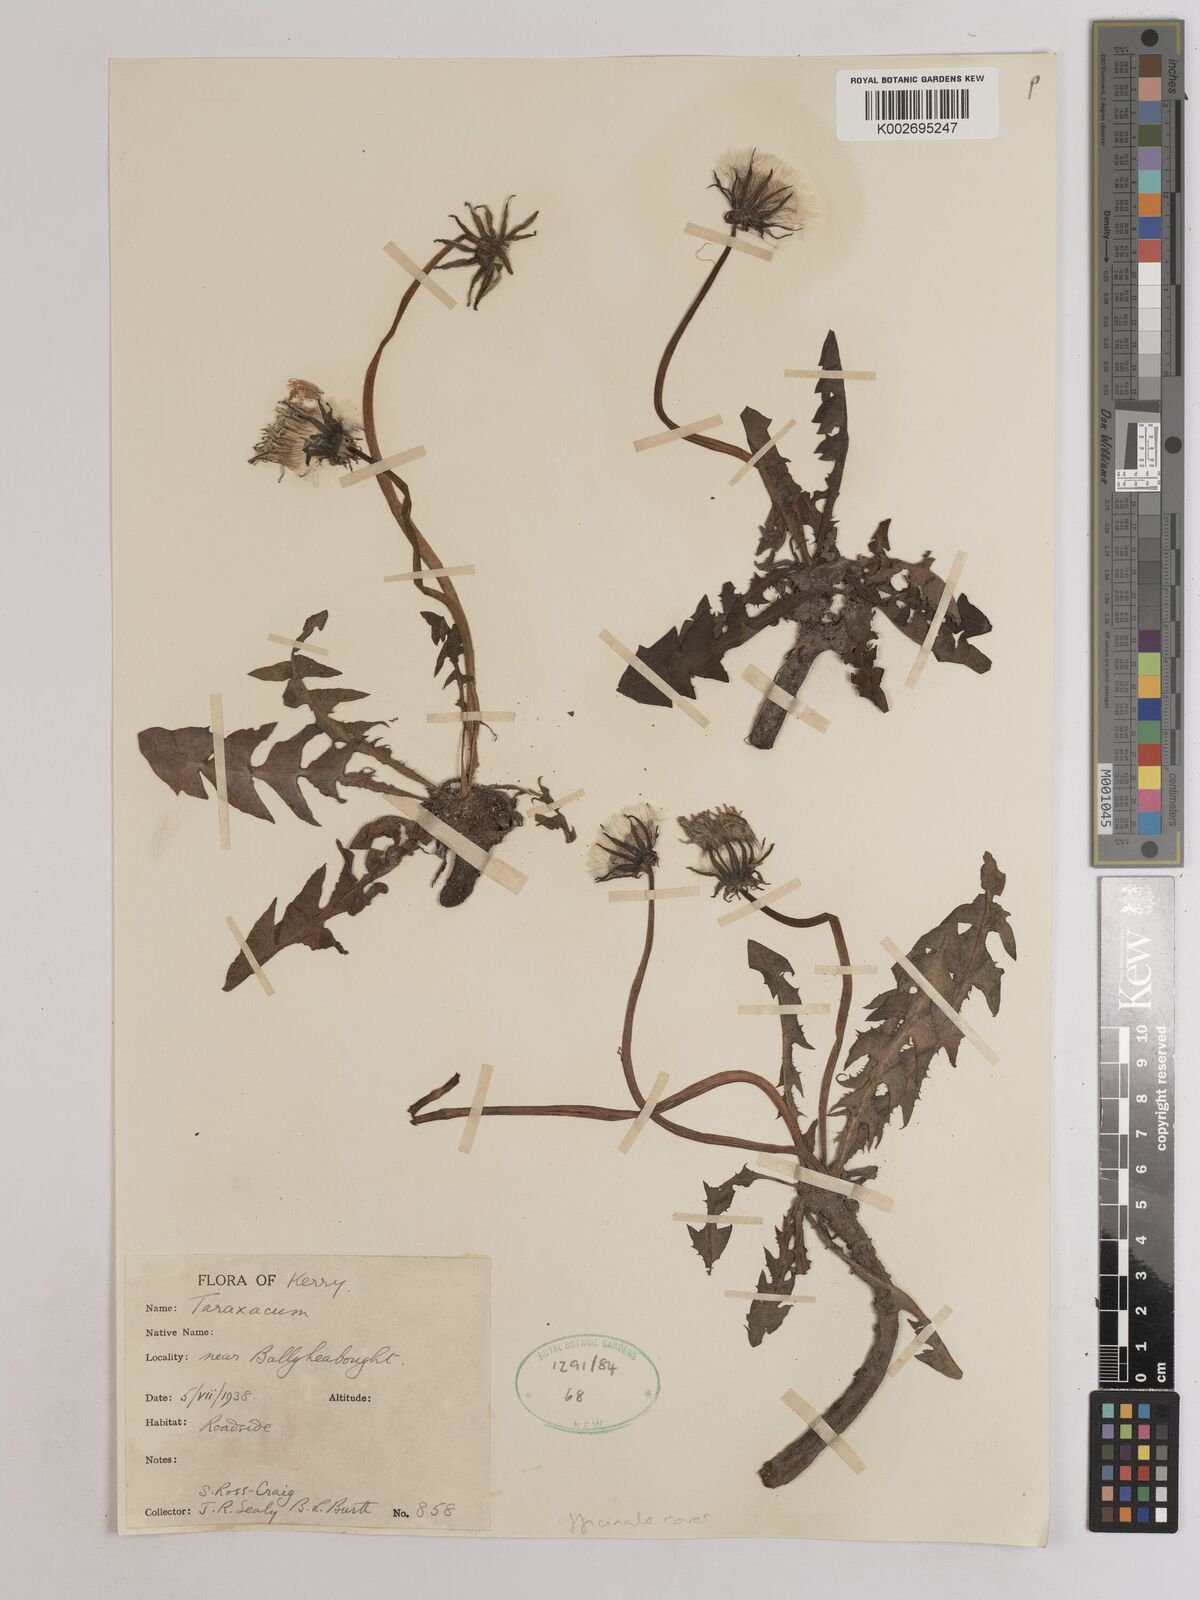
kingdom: Plantae
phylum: Tracheophyta
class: Magnoliopsida
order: Asterales
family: Asteraceae
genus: Taraxacum
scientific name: Taraxacum officinale
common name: Common dandelion
